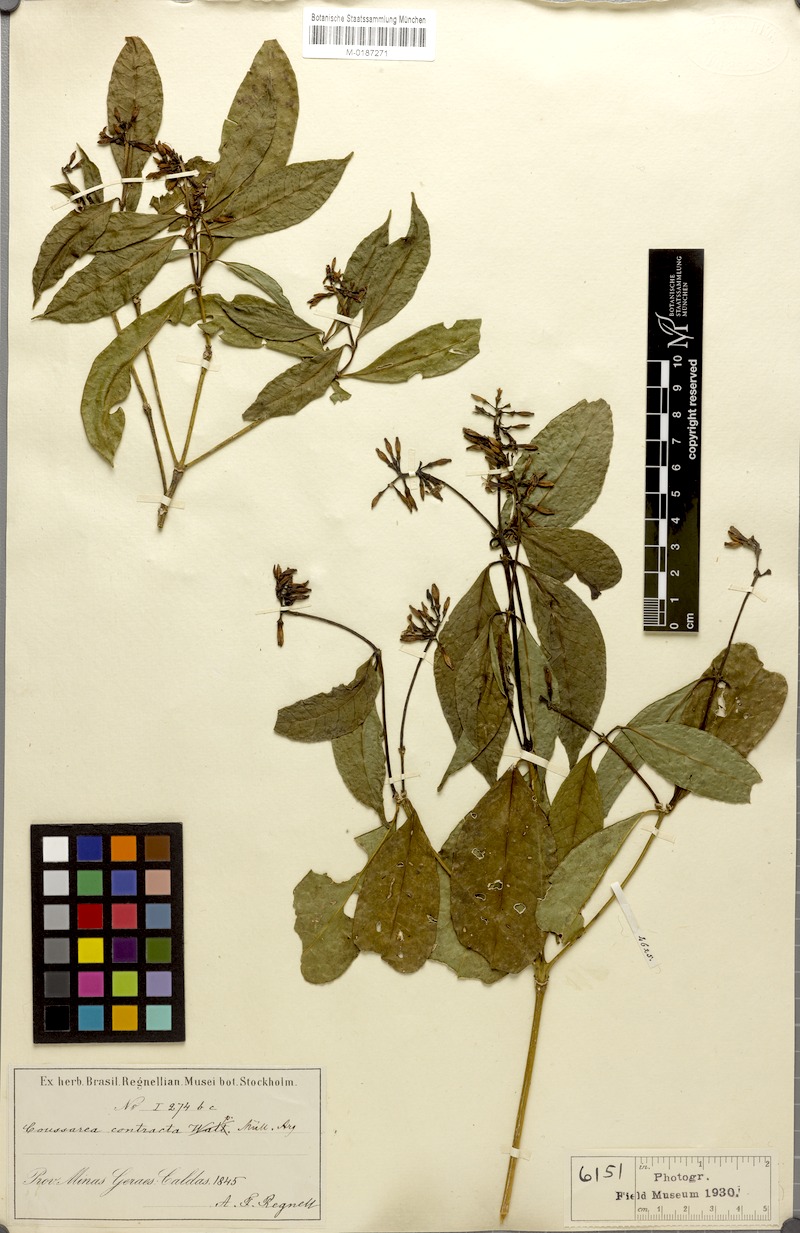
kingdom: Plantae
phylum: Tracheophyta
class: Magnoliopsida
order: Gentianales
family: Rubiaceae
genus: Coussarea
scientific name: Coussarea contracta
